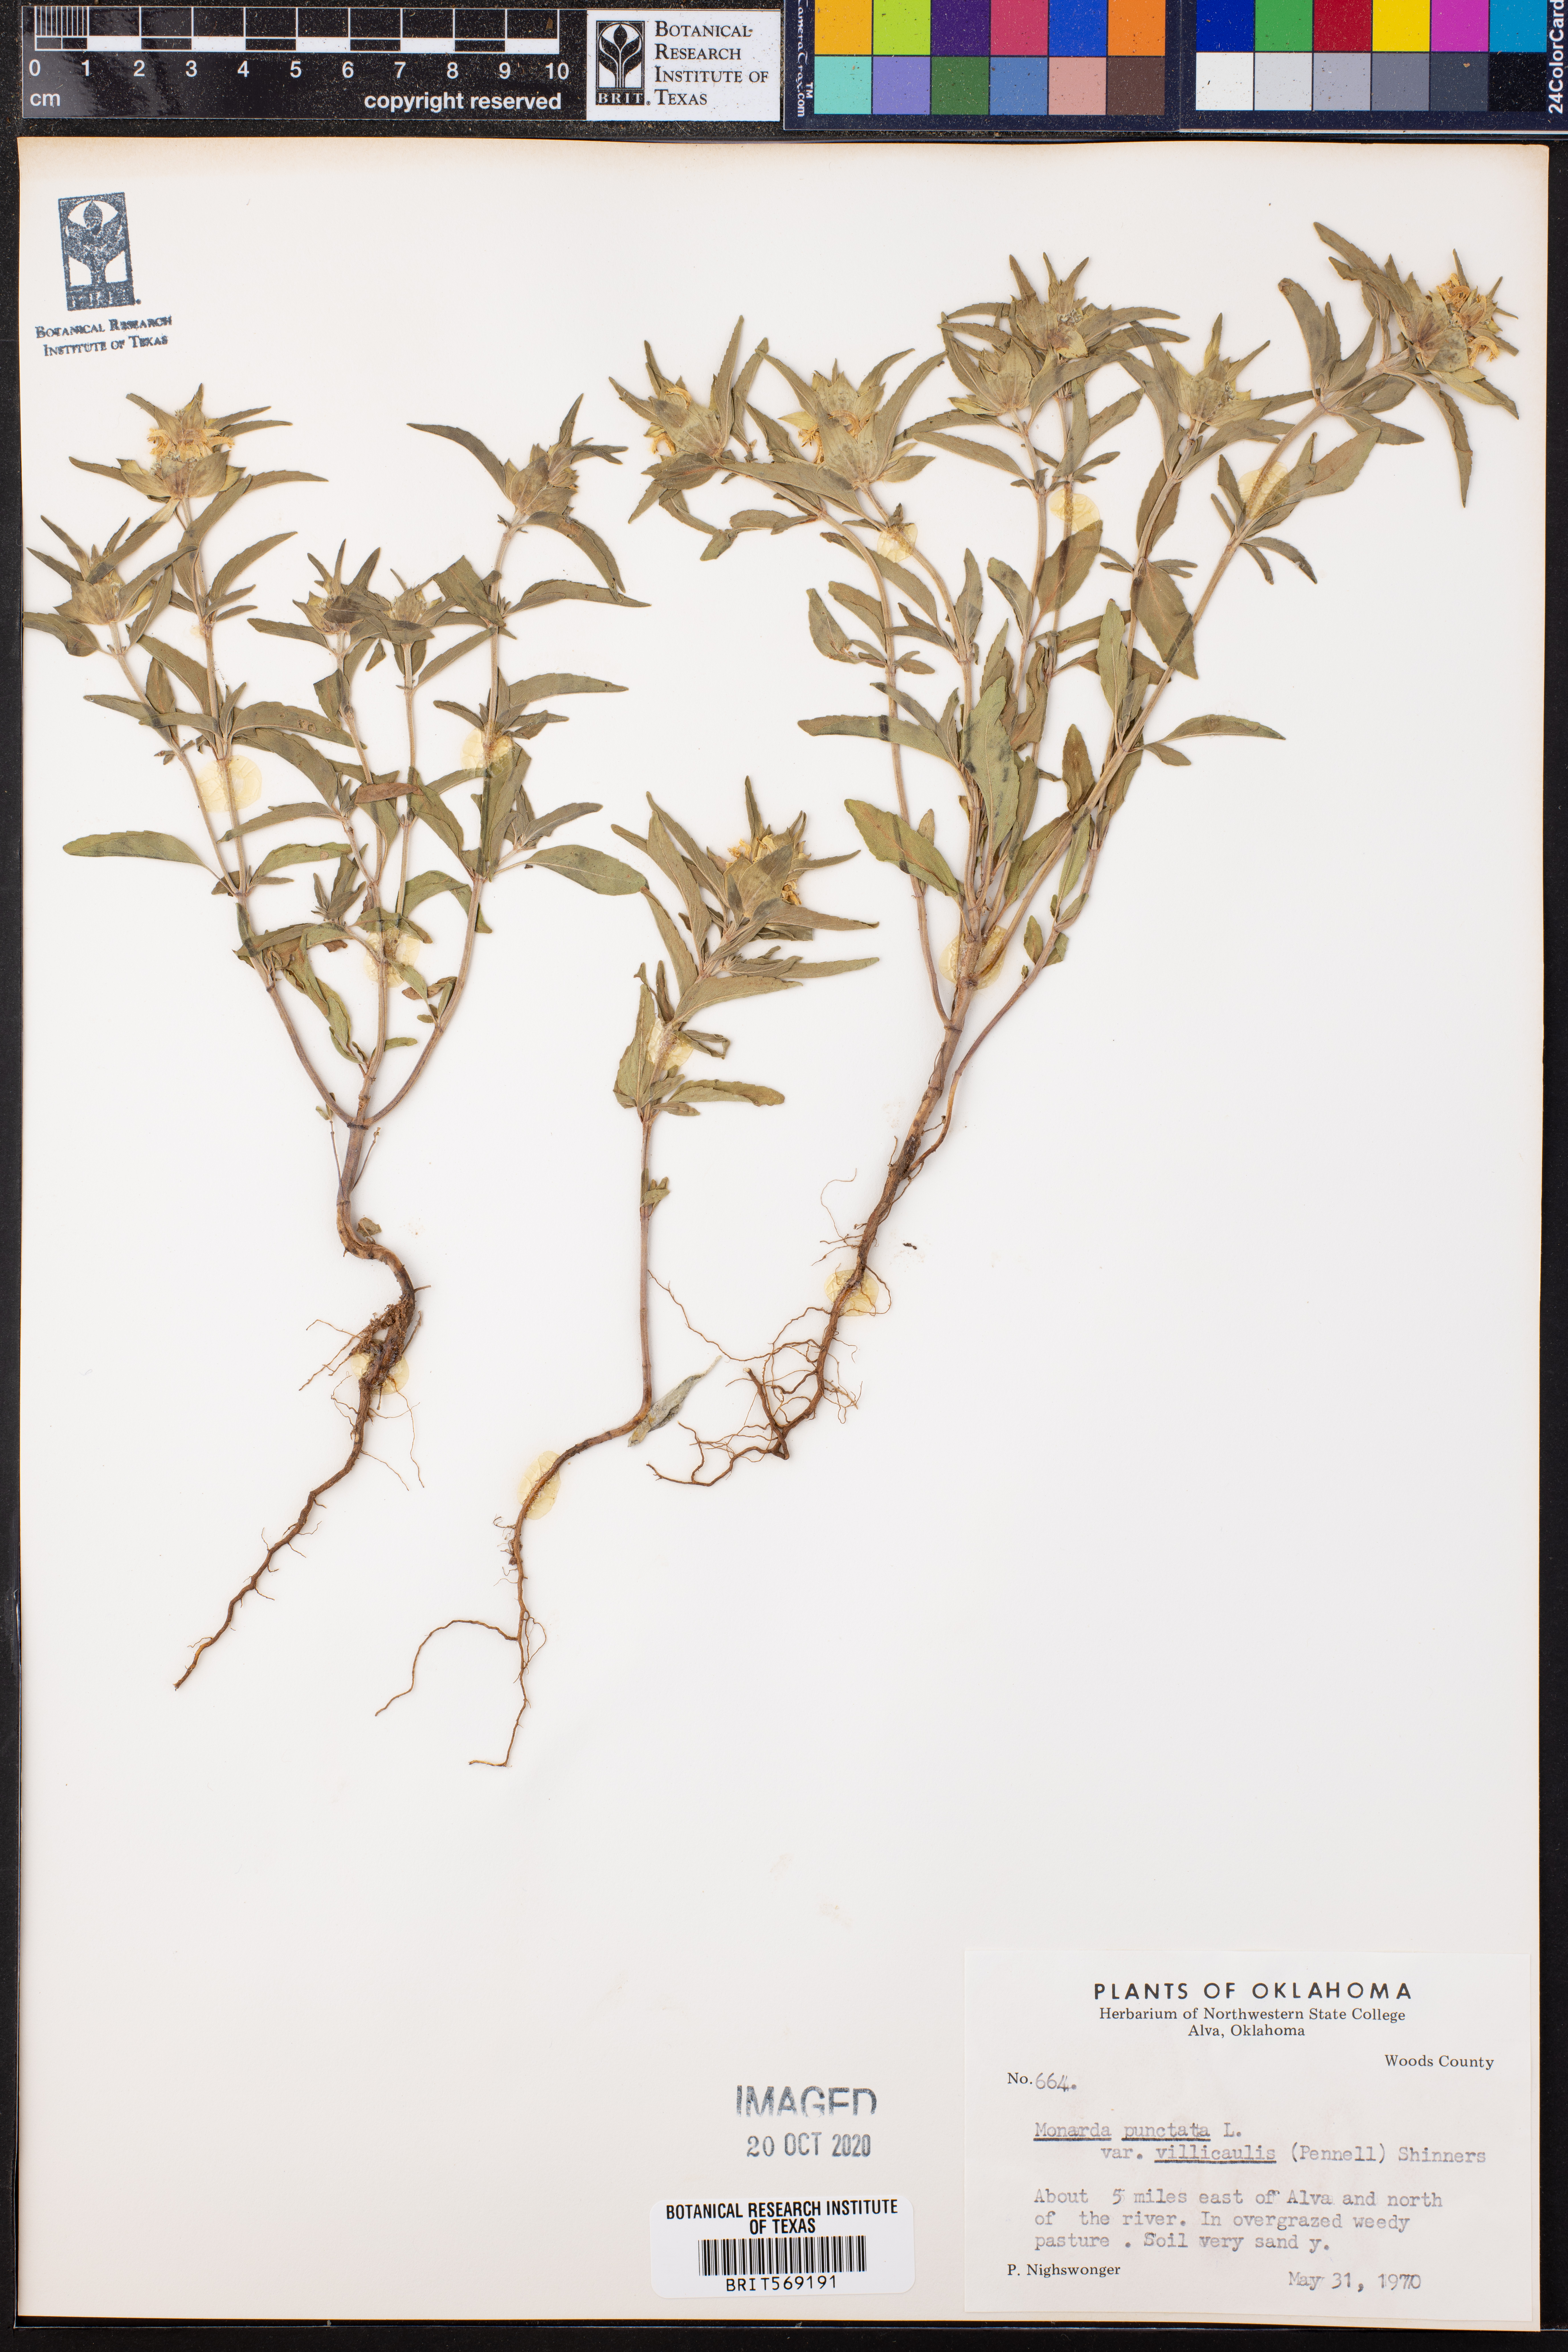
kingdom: Plantae
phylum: Tracheophyta
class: Magnoliopsida
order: Lamiales
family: Lamiaceae
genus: Monarda
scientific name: Monarda punctata
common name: Dotted monarda
